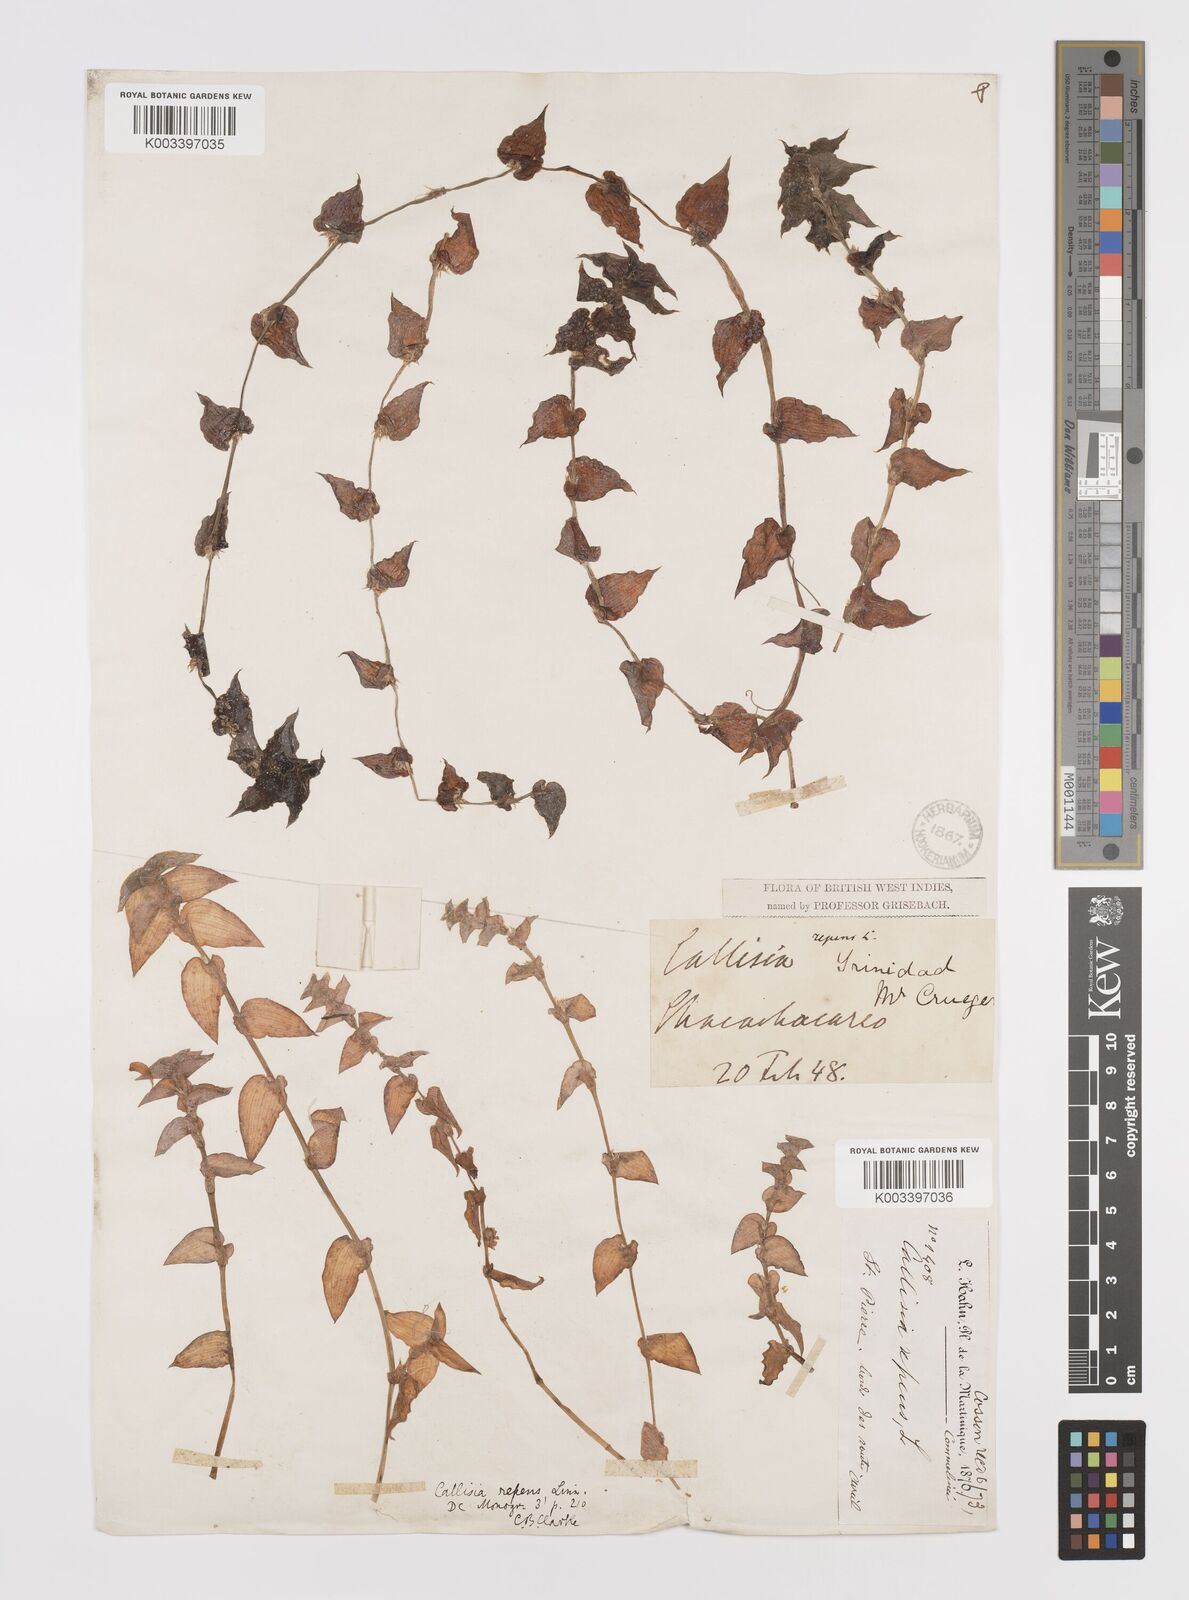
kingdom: Plantae
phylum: Tracheophyta
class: Liliopsida
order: Commelinales
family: Commelinaceae
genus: Callisia
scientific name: Callisia repens
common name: Creeping inchplant
